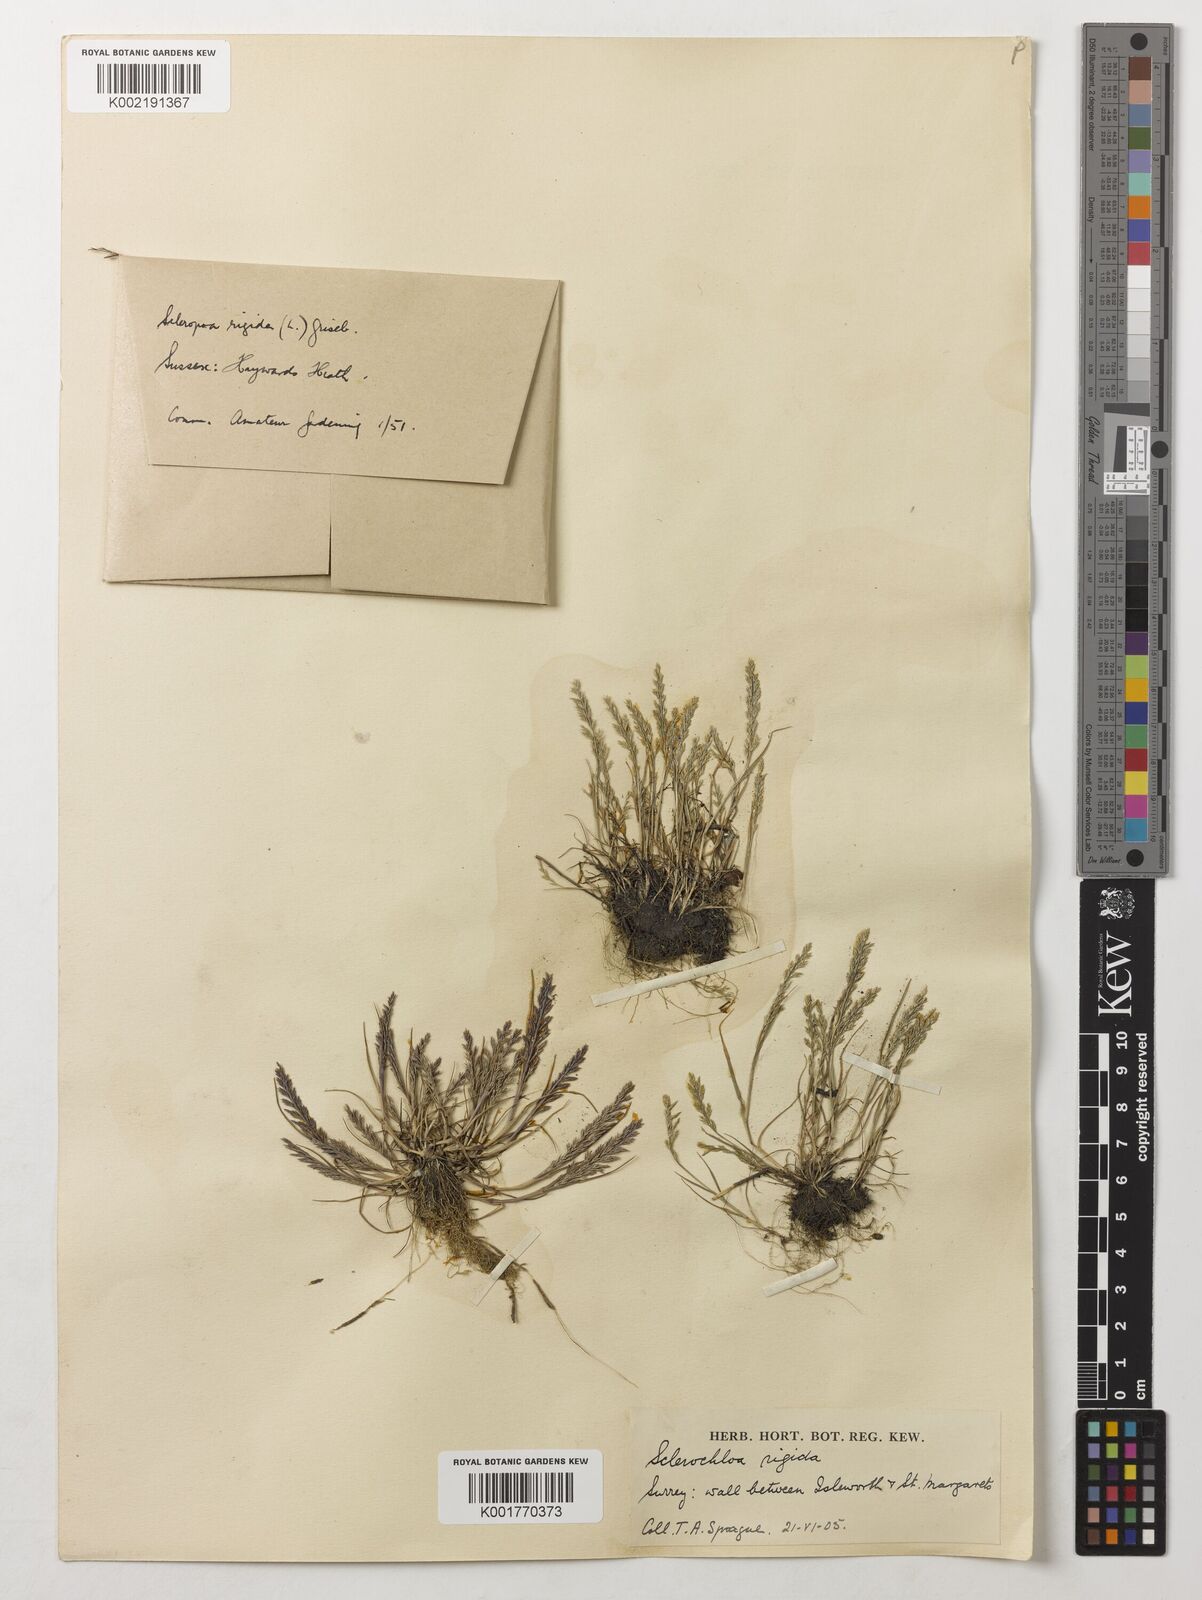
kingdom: Plantae
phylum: Tracheophyta
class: Liliopsida
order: Poales
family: Poaceae
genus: Catapodium
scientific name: Catapodium rigidum
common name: Fern-grass
